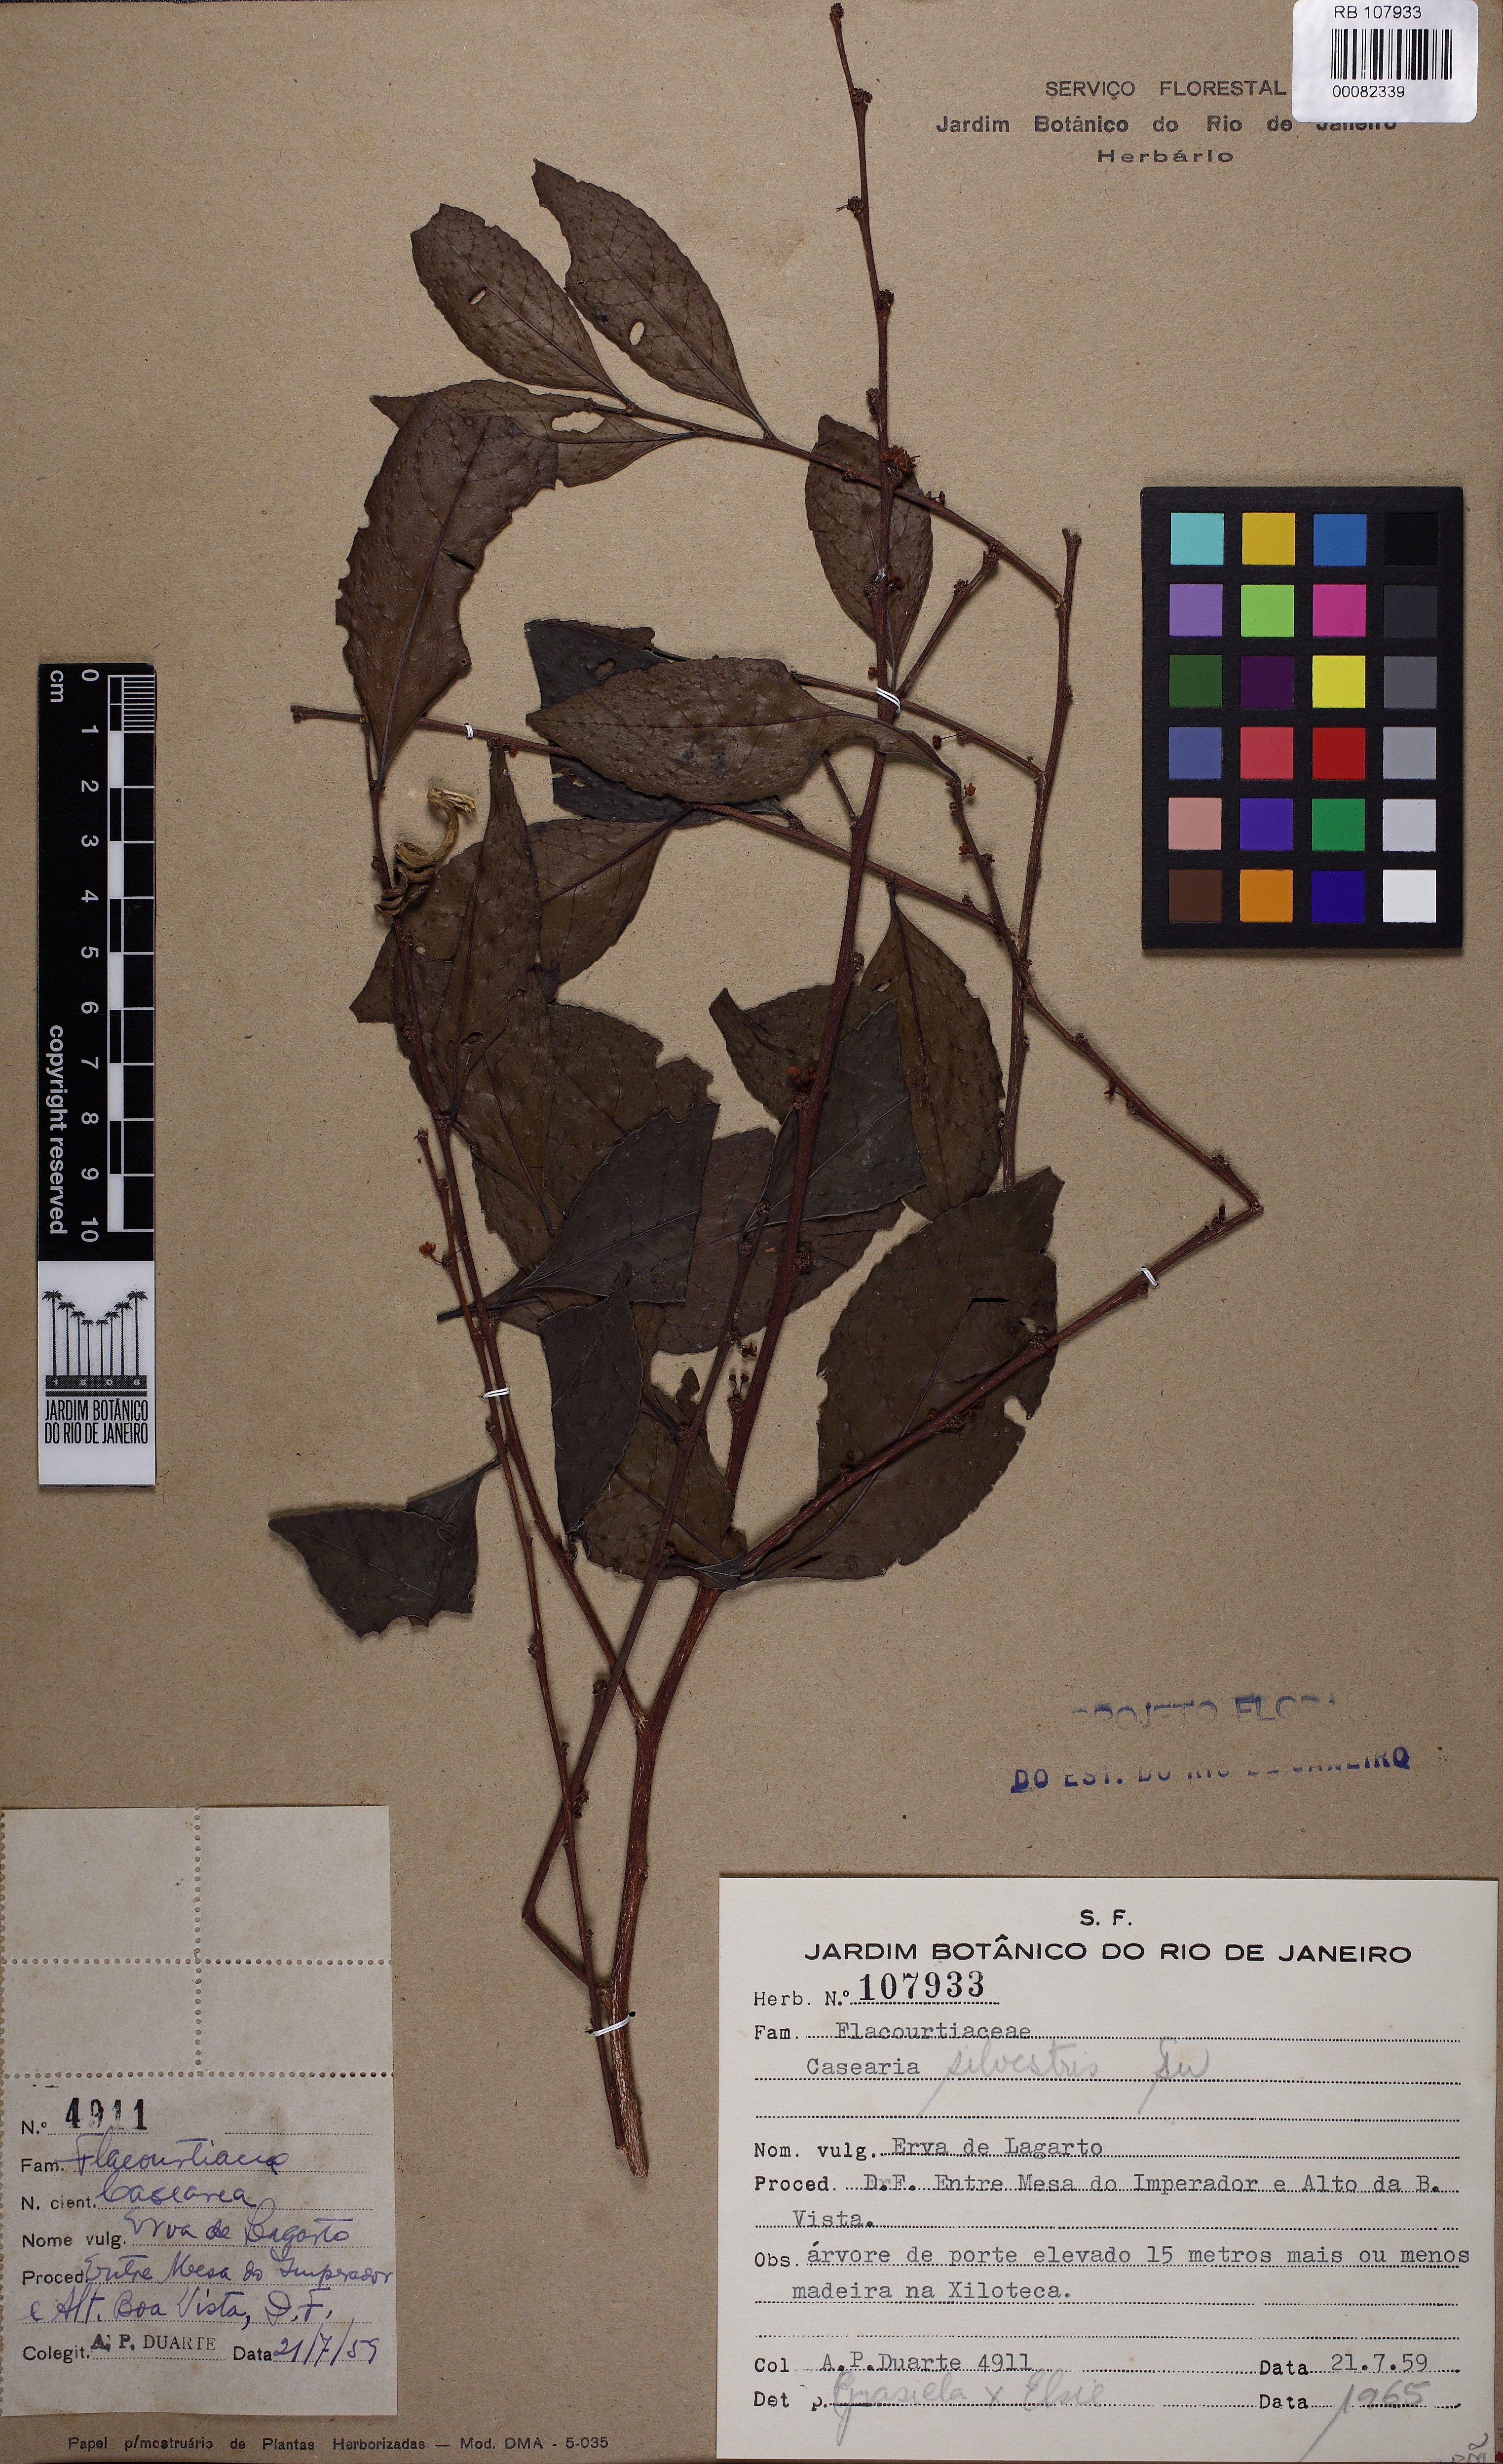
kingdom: Plantae
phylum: Tracheophyta
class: Magnoliopsida
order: Malpighiales
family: Salicaceae
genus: Casearia
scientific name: Casearia sylvestris
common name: Wild sage
